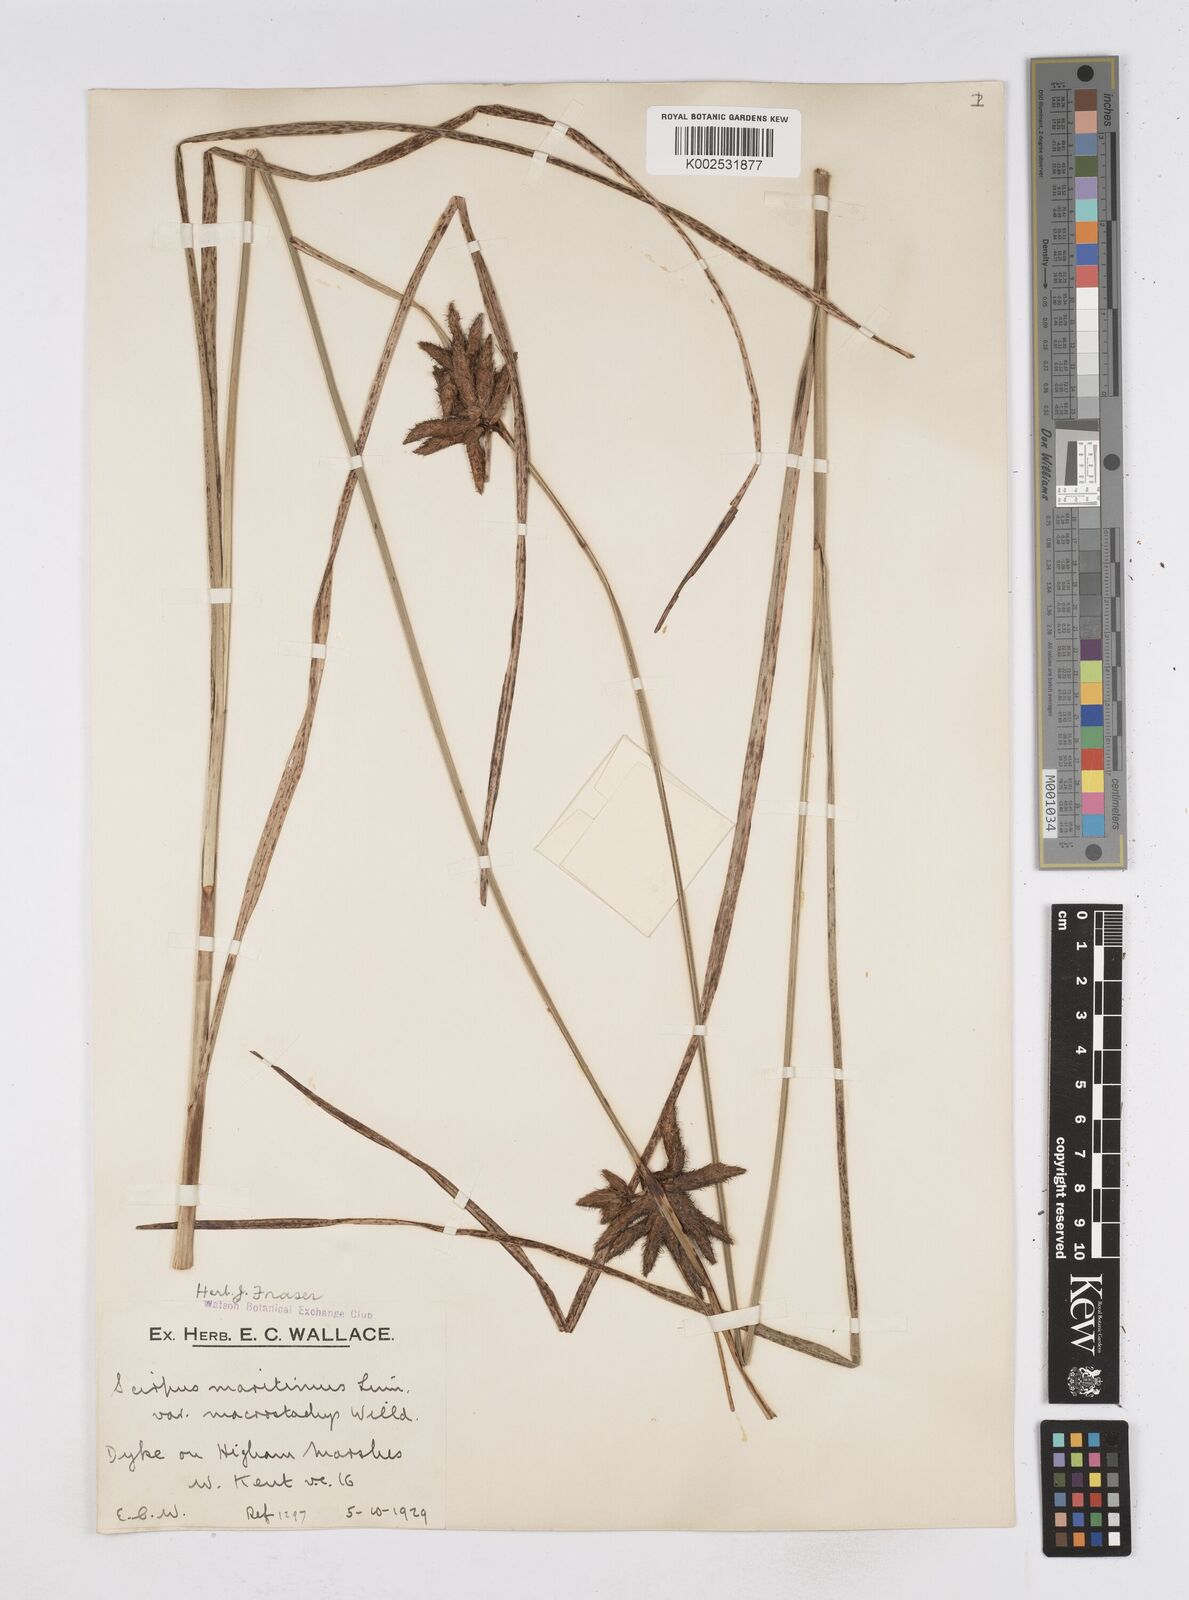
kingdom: Plantae
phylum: Tracheophyta
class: Liliopsida
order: Poales
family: Cyperaceae
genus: Bolboschoenus
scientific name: Bolboschoenus maritimus
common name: Sea club-rush
